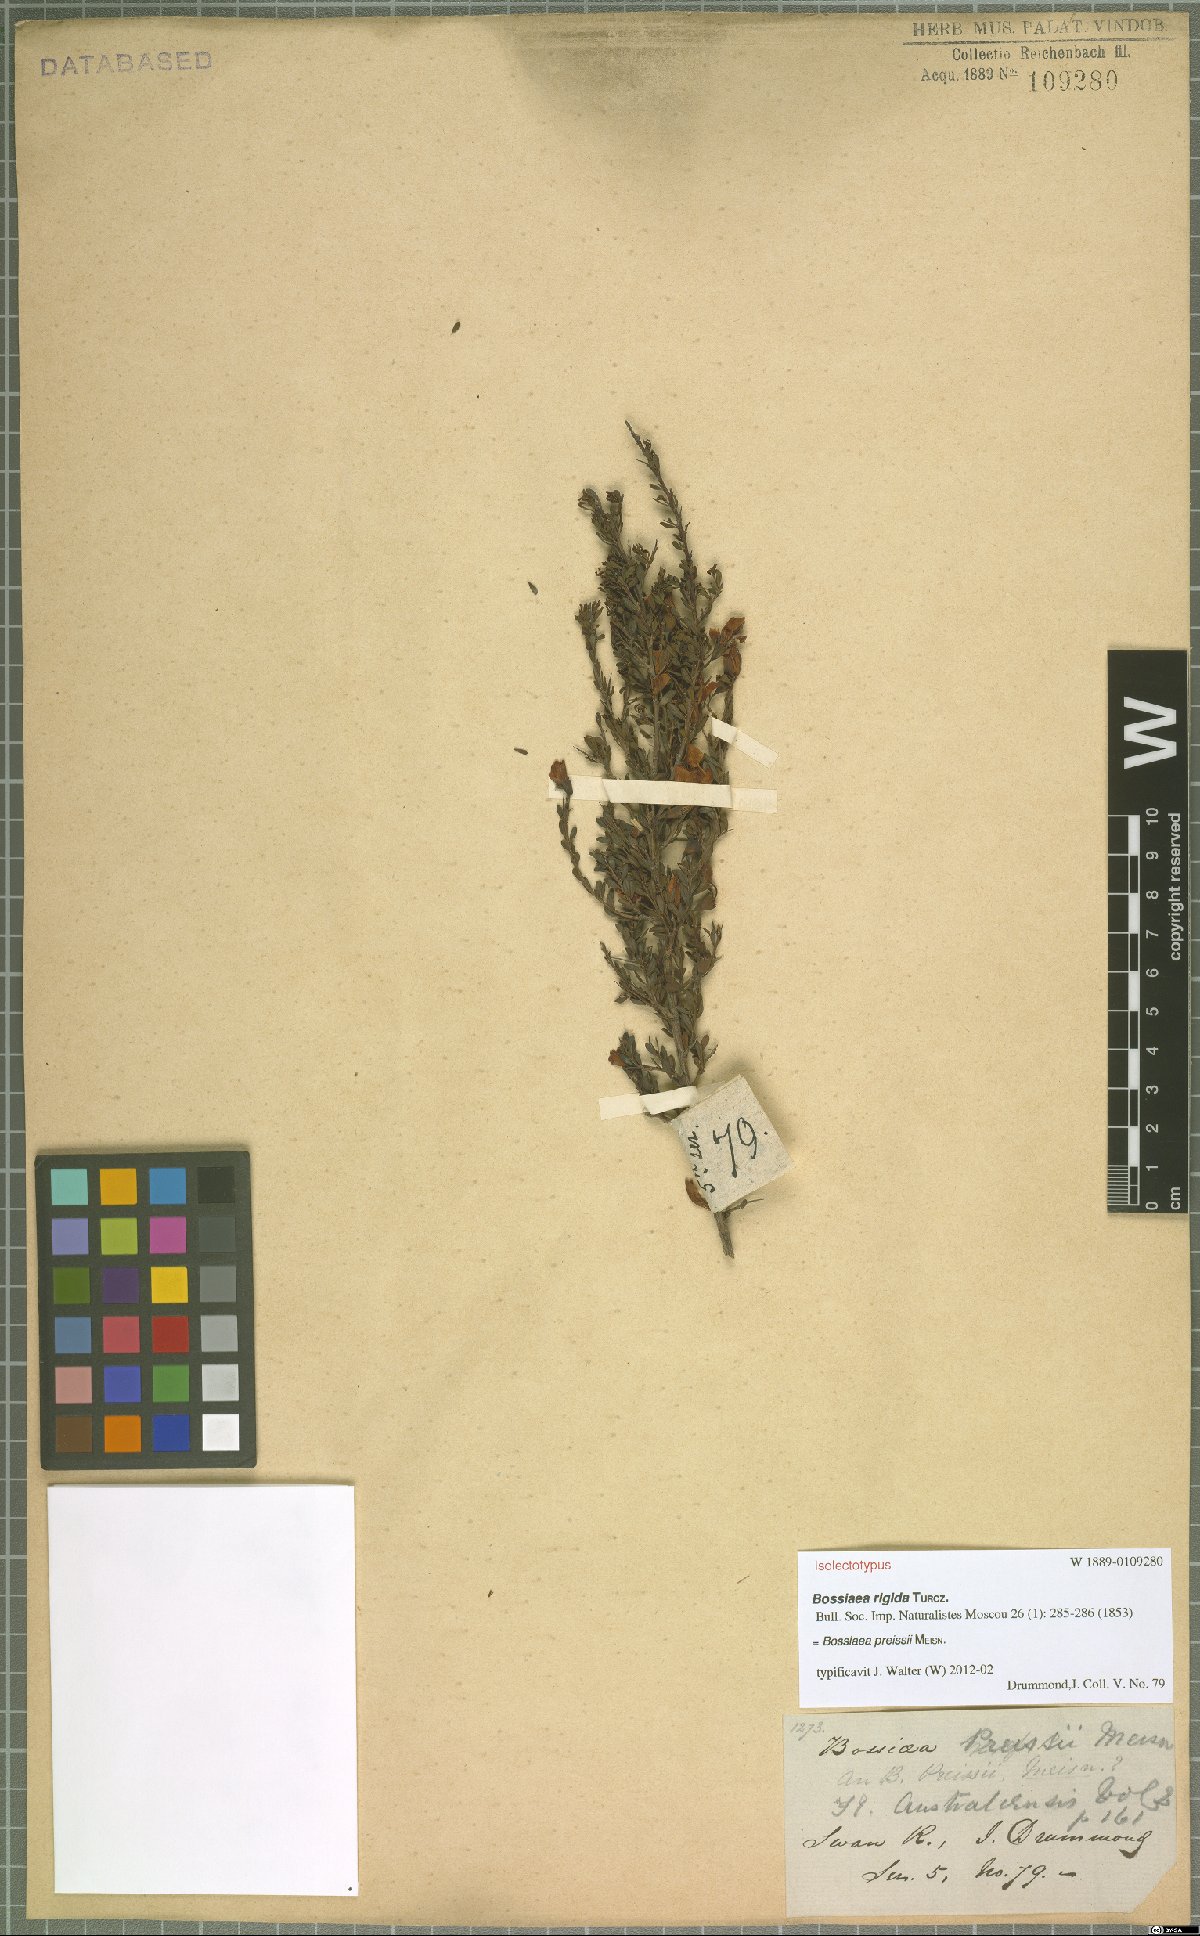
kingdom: Plantae
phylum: Tracheophyta
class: Magnoliopsida
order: Fabales
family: Fabaceae
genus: Bossiaea
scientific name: Bossiaea preissii
